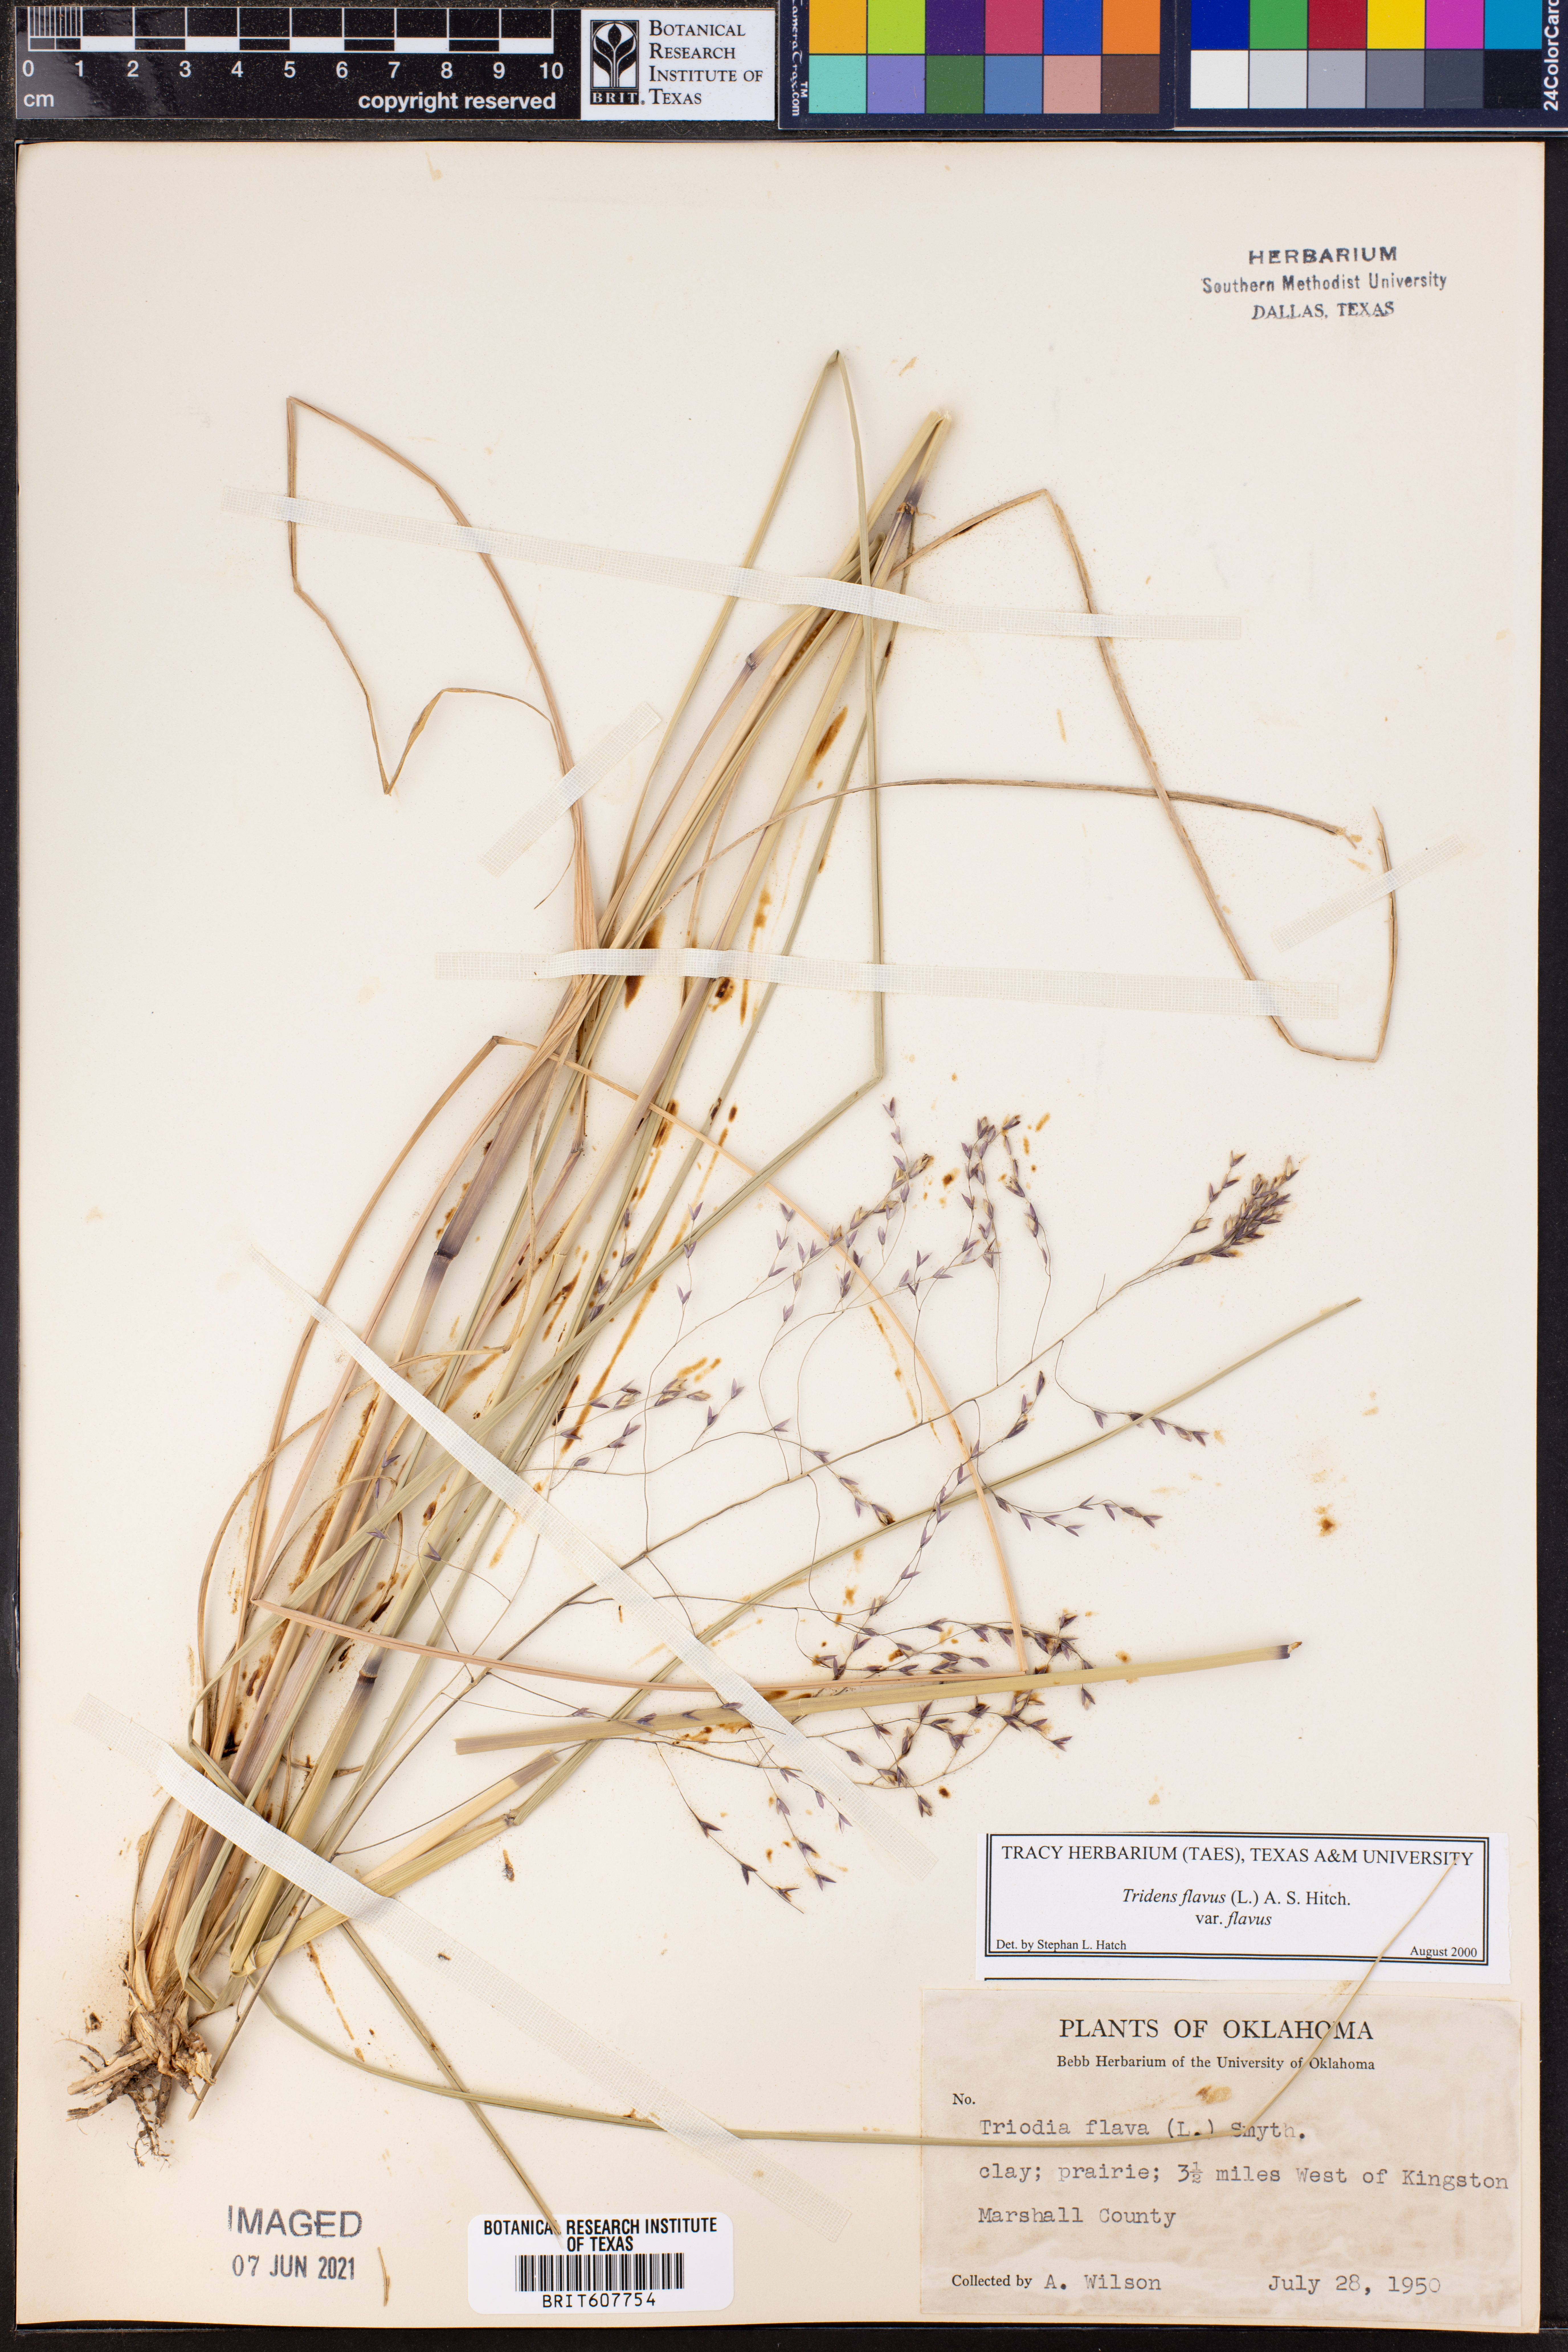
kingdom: Plantae
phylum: Tracheophyta
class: Liliopsida
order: Poales
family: Poaceae
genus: Tridens
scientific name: Tridens flavus
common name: Purpletop
